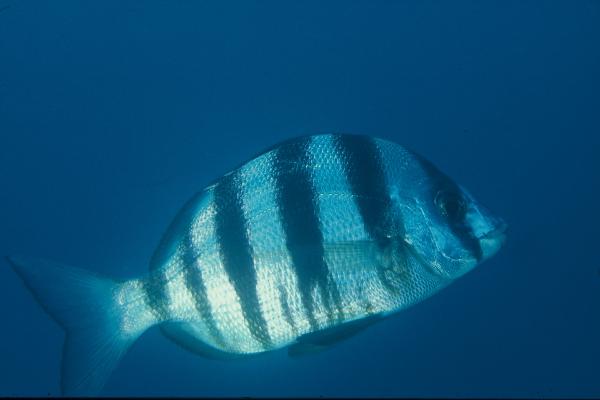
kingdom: Animalia
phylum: Chordata
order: Perciformes
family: Sparidae
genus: Diplodus
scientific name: Diplodus hottentotus
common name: Zebra
